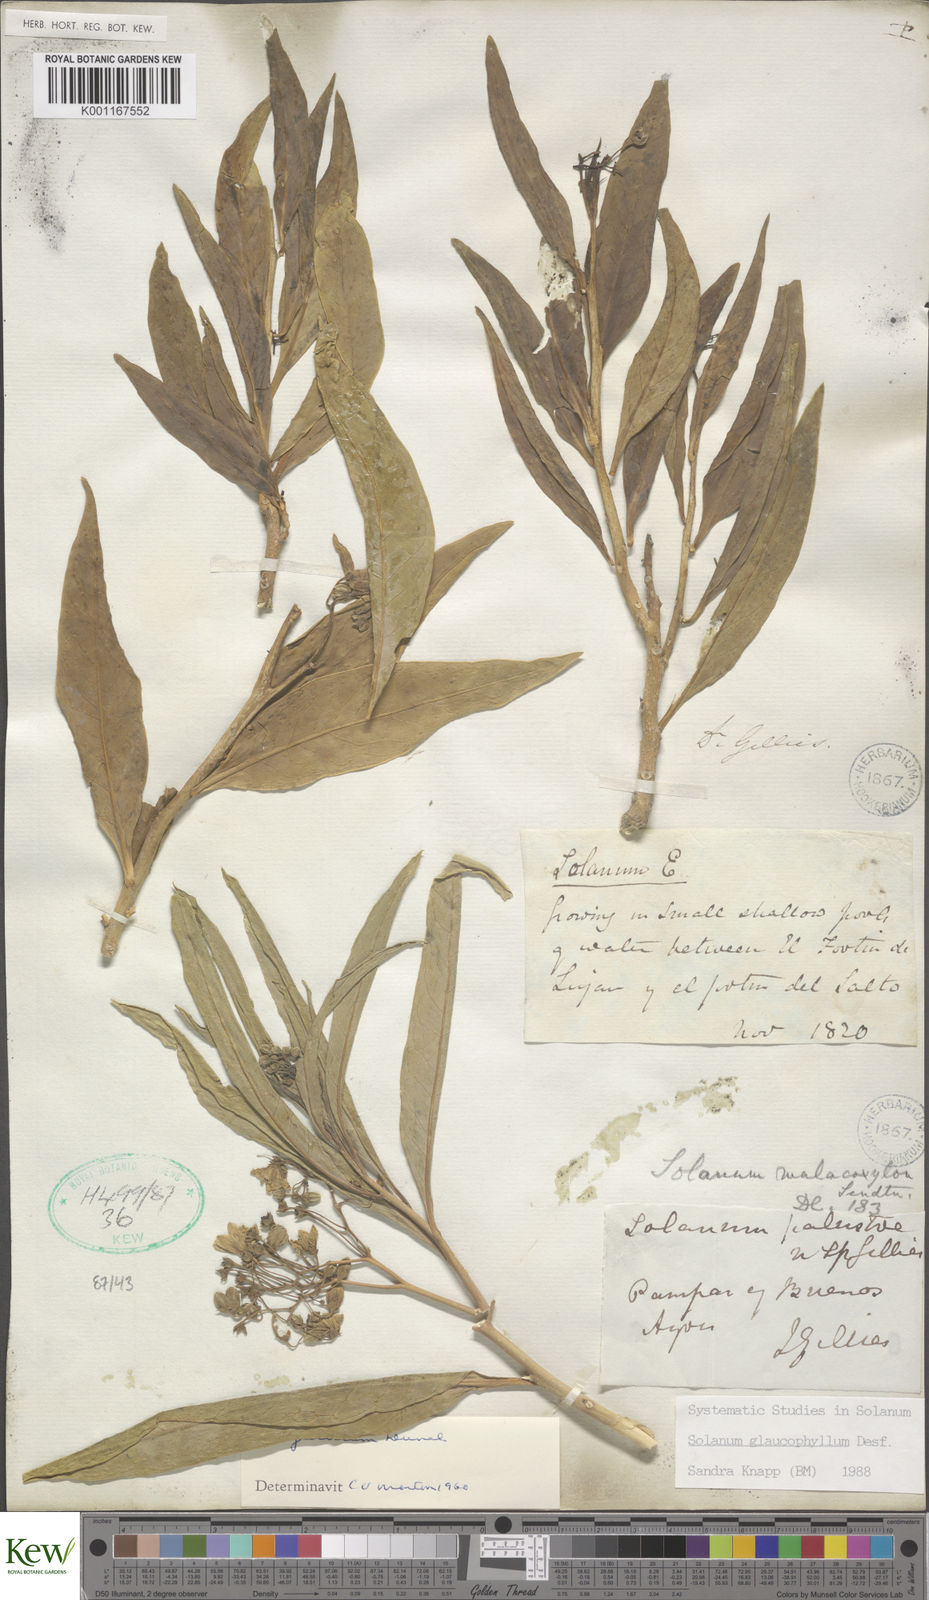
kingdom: Plantae
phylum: Tracheophyta
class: Magnoliopsida
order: Solanales
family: Solanaceae
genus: Solanum
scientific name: Solanum glaucophyllum
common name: Waxyleaf nightshade
